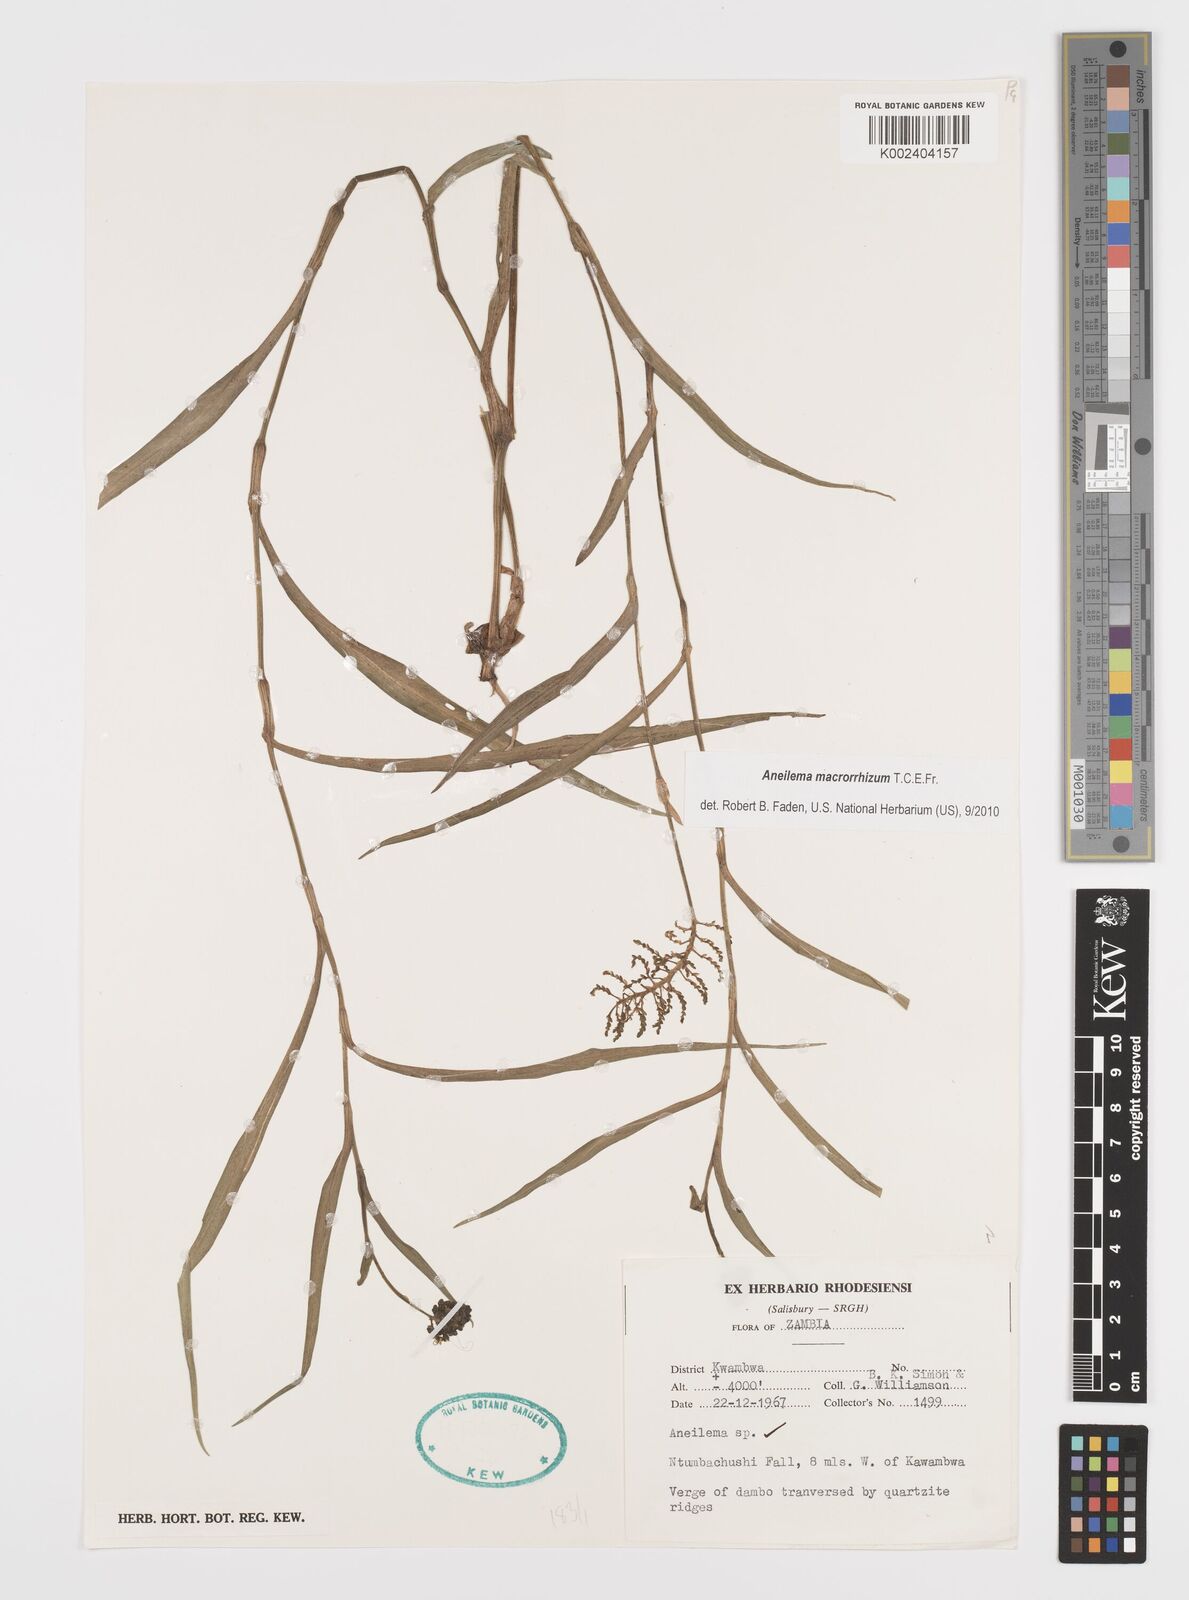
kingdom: Plantae
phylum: Tracheophyta
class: Liliopsida
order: Commelinales
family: Commelinaceae
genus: Aneilema
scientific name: Aneilema macrorrhizum
